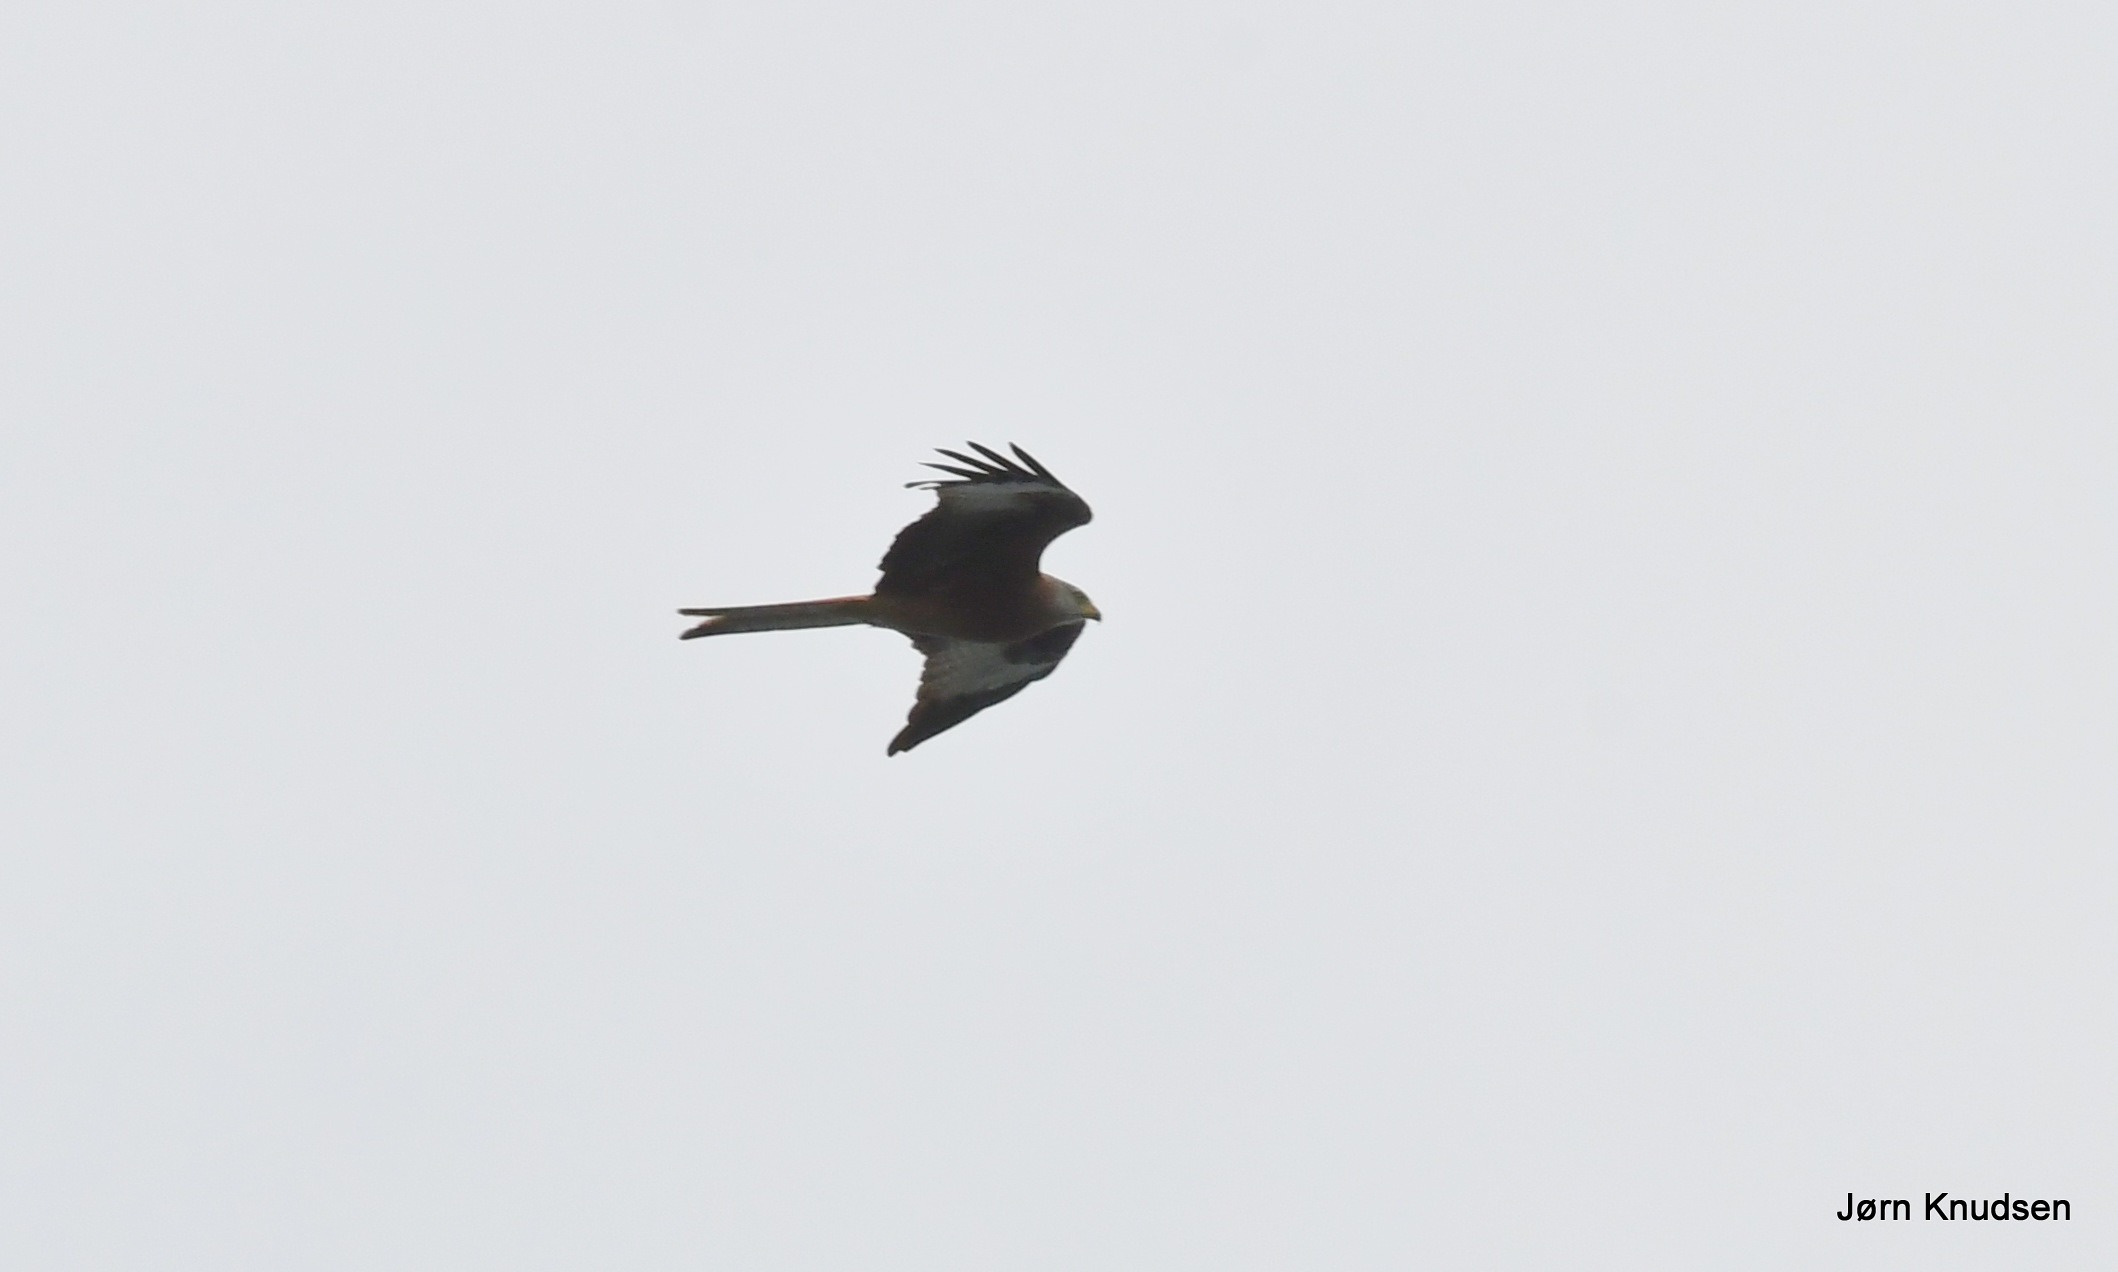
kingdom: Animalia
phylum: Chordata
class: Aves
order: Accipitriformes
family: Accipitridae
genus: Milvus
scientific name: Milvus milvus
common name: Rød glente
